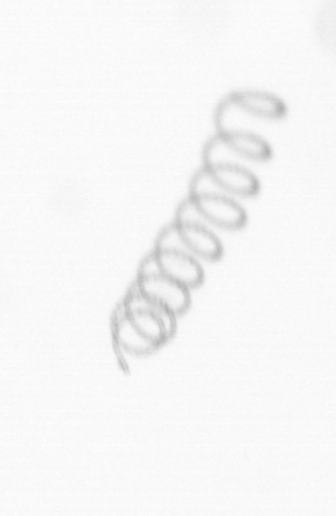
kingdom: Chromista
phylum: Ochrophyta
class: Bacillariophyceae
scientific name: Bacillariophyceae
